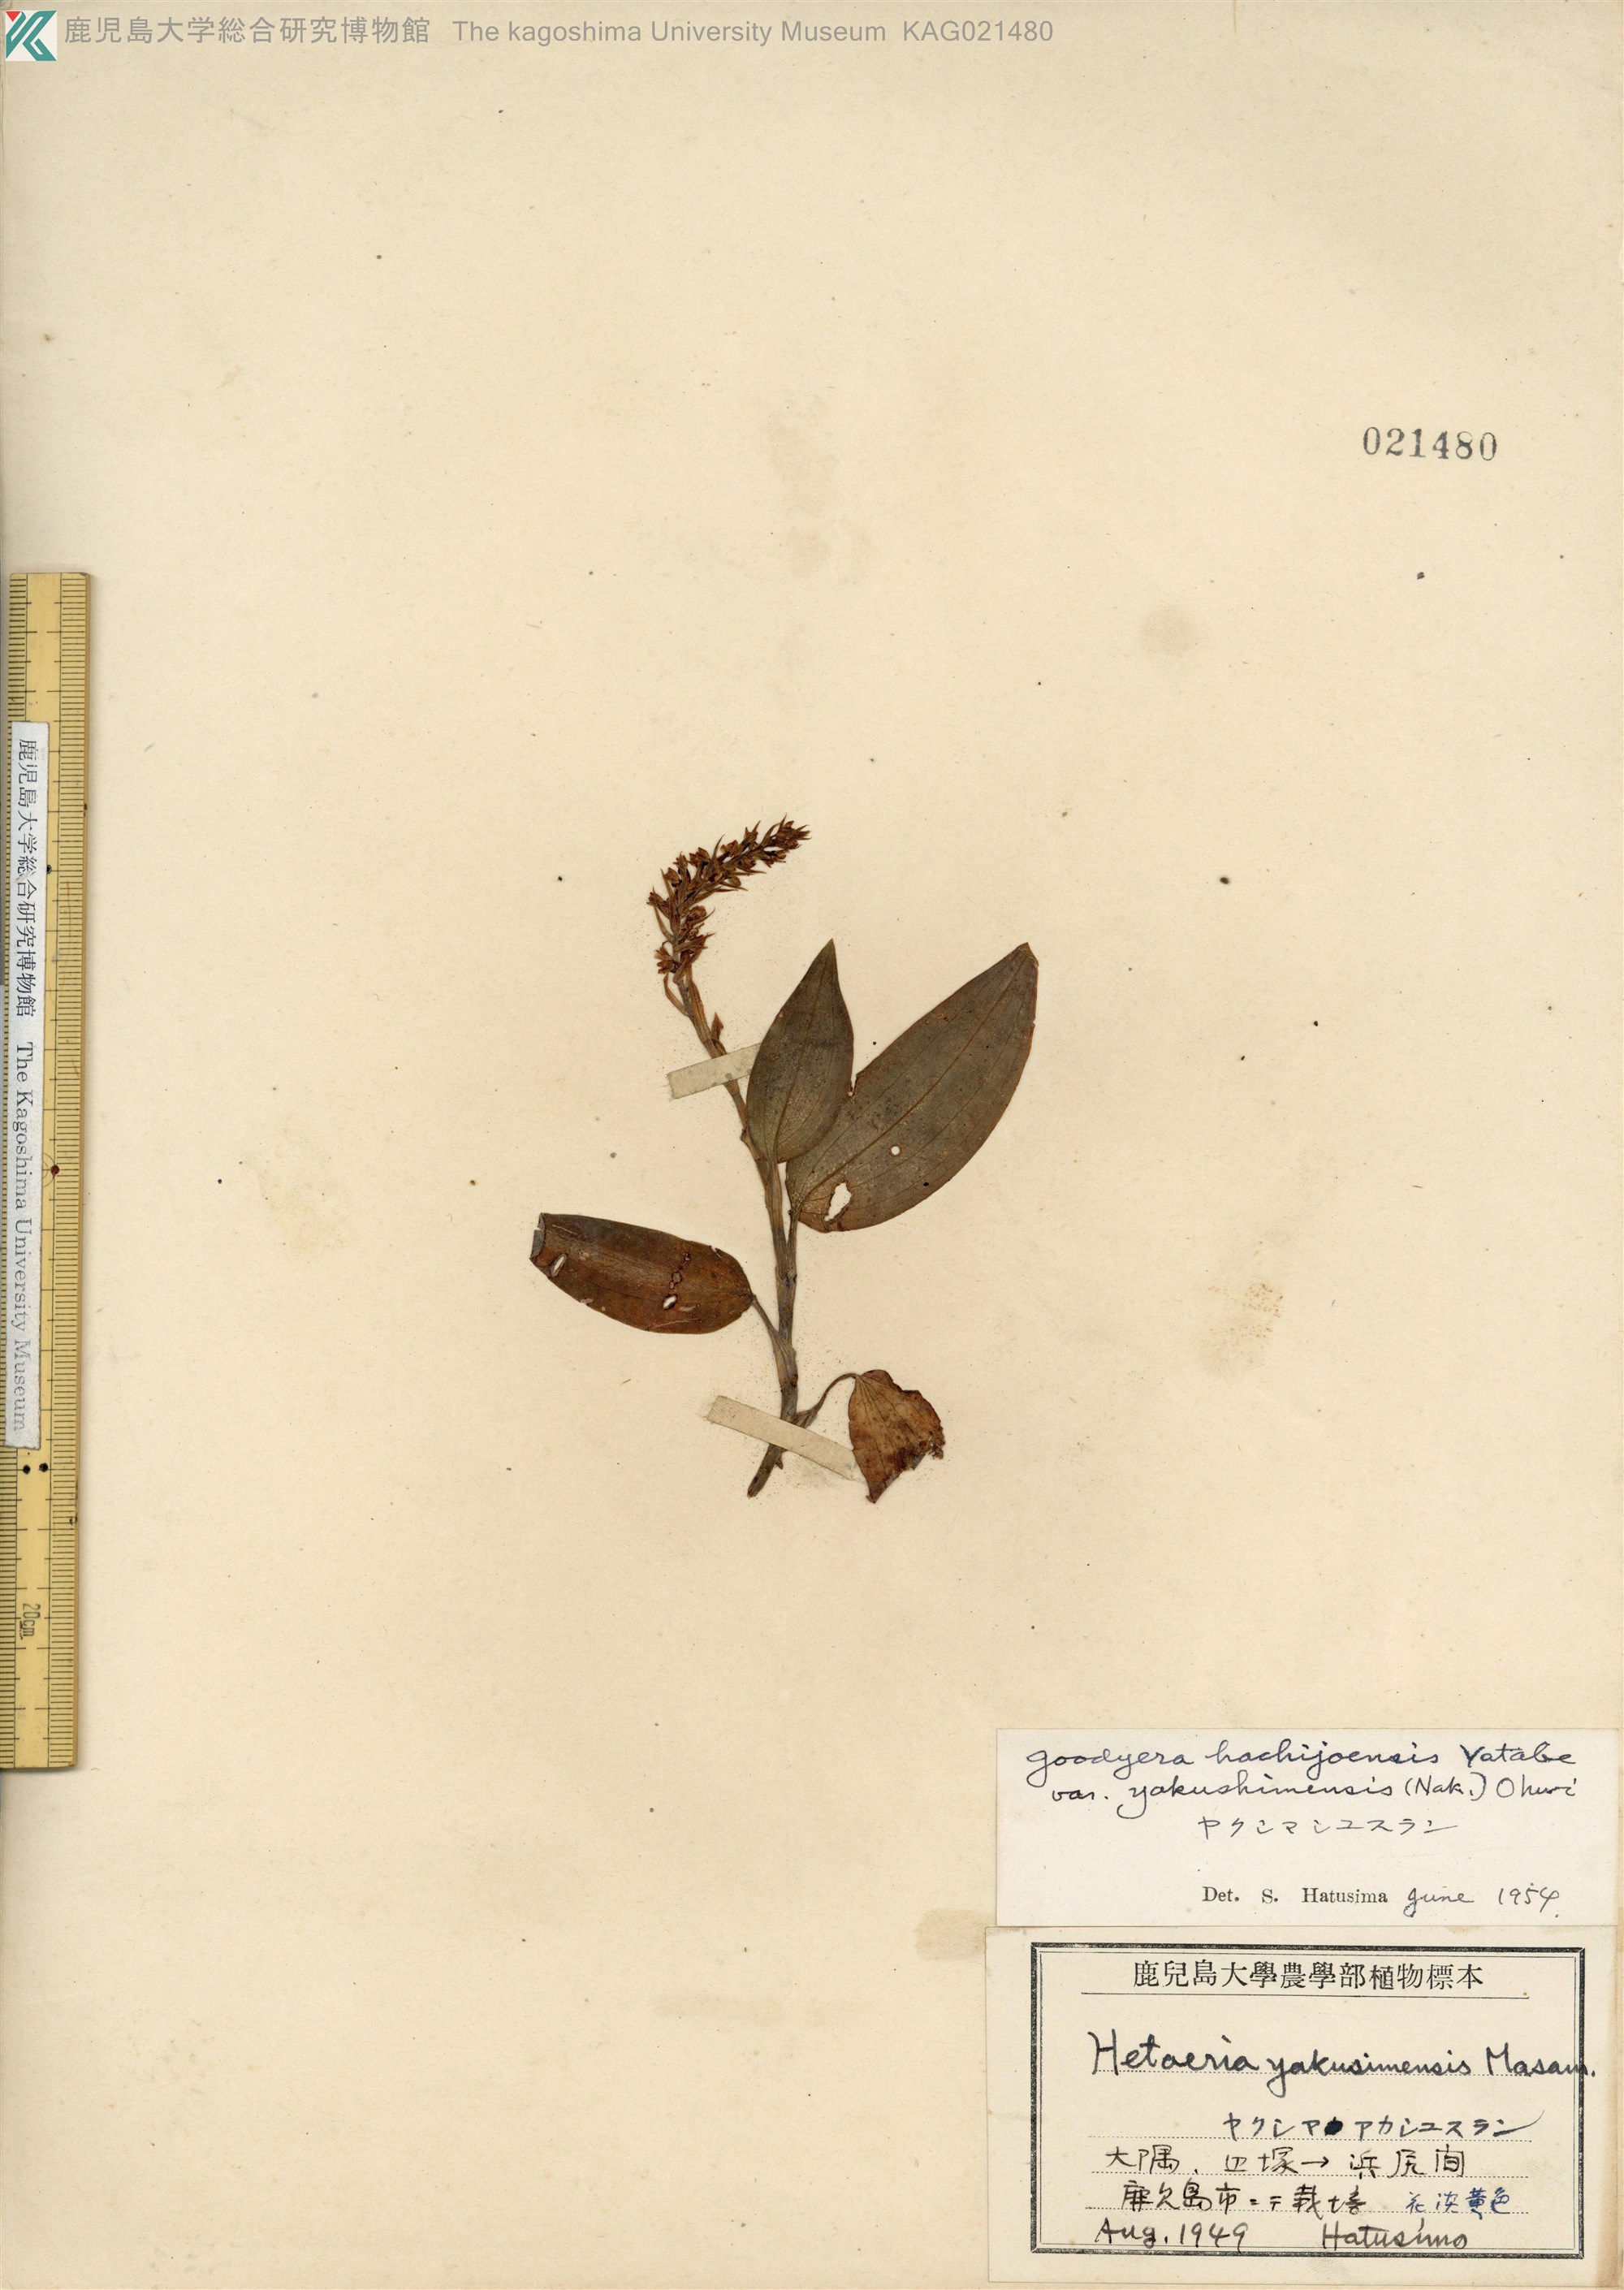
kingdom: Plantae
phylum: Tracheophyta
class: Liliopsida
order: Asparagales
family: Orchidaceae
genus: Goodyera
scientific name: Goodyera hachijoensis
